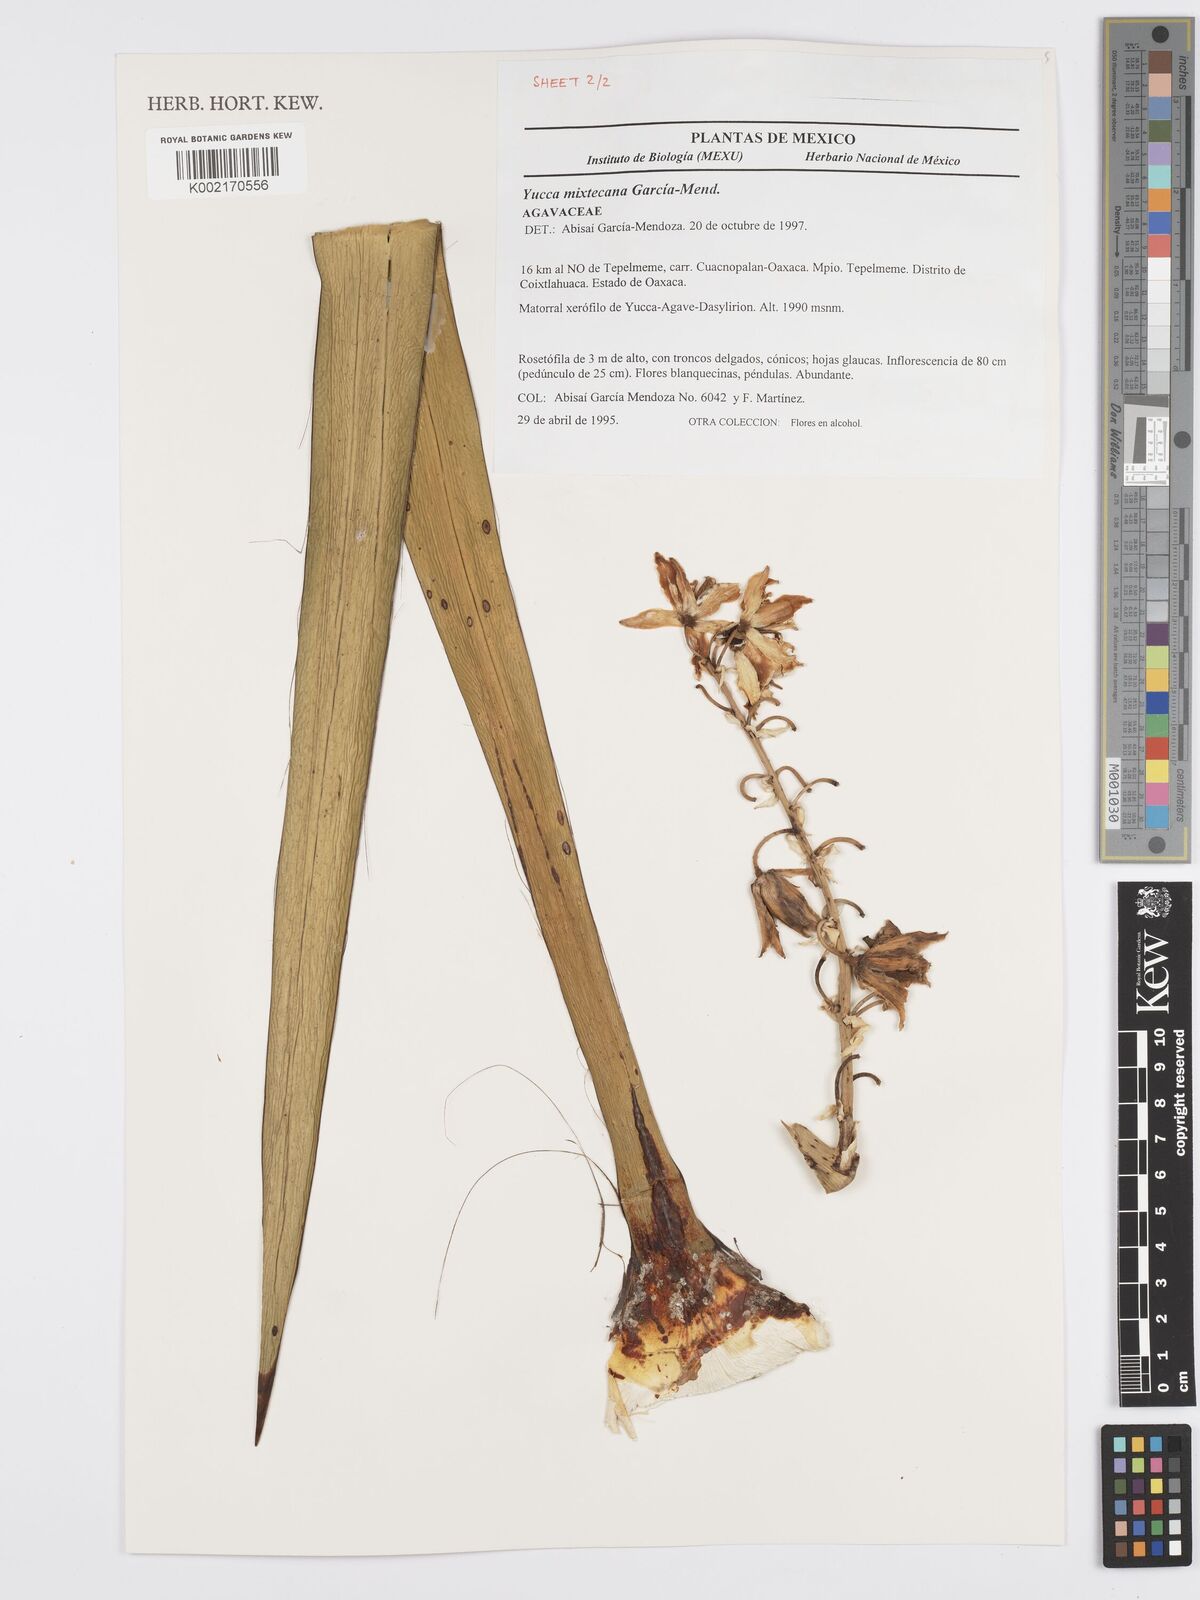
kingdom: Plantae
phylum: Tracheophyta
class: Liliopsida
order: Asparagales
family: Asparagaceae
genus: Yucca
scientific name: Yucca mixtecana
